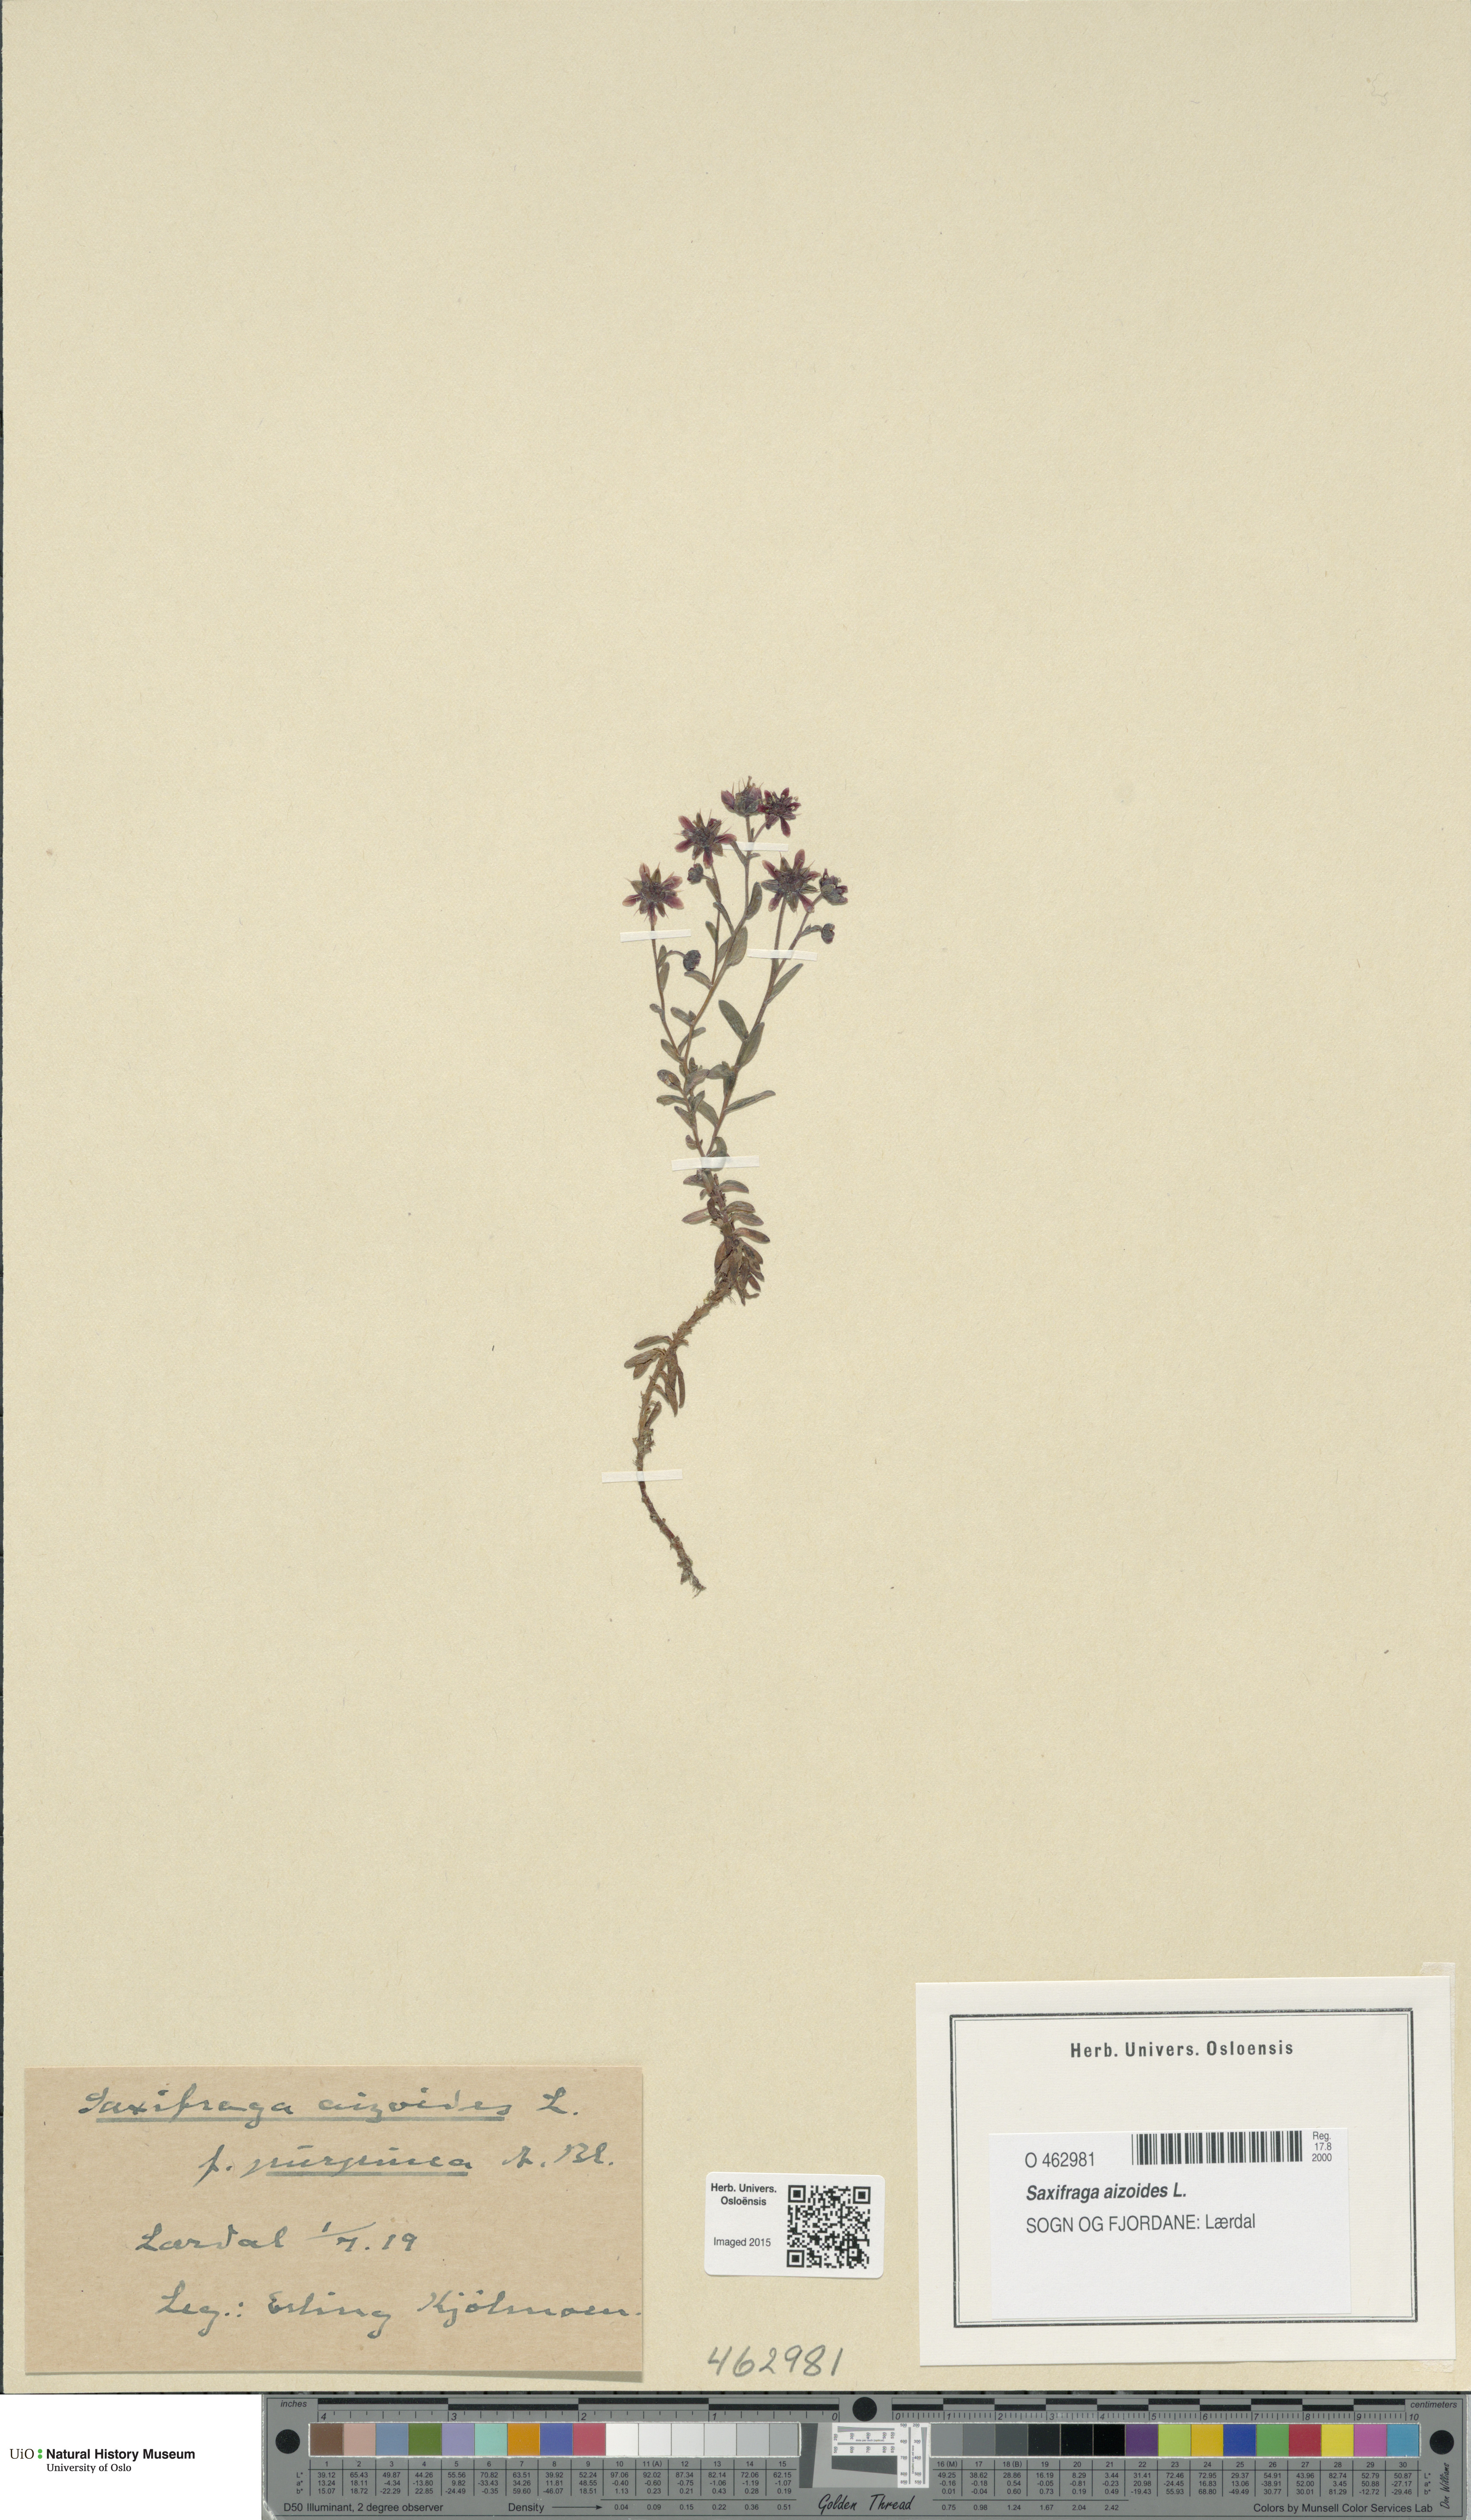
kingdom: Plantae
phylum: Tracheophyta
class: Magnoliopsida
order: Saxifragales
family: Saxifragaceae
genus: Saxifraga
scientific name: Saxifraga aizoides
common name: Yellow mountain saxifrage
